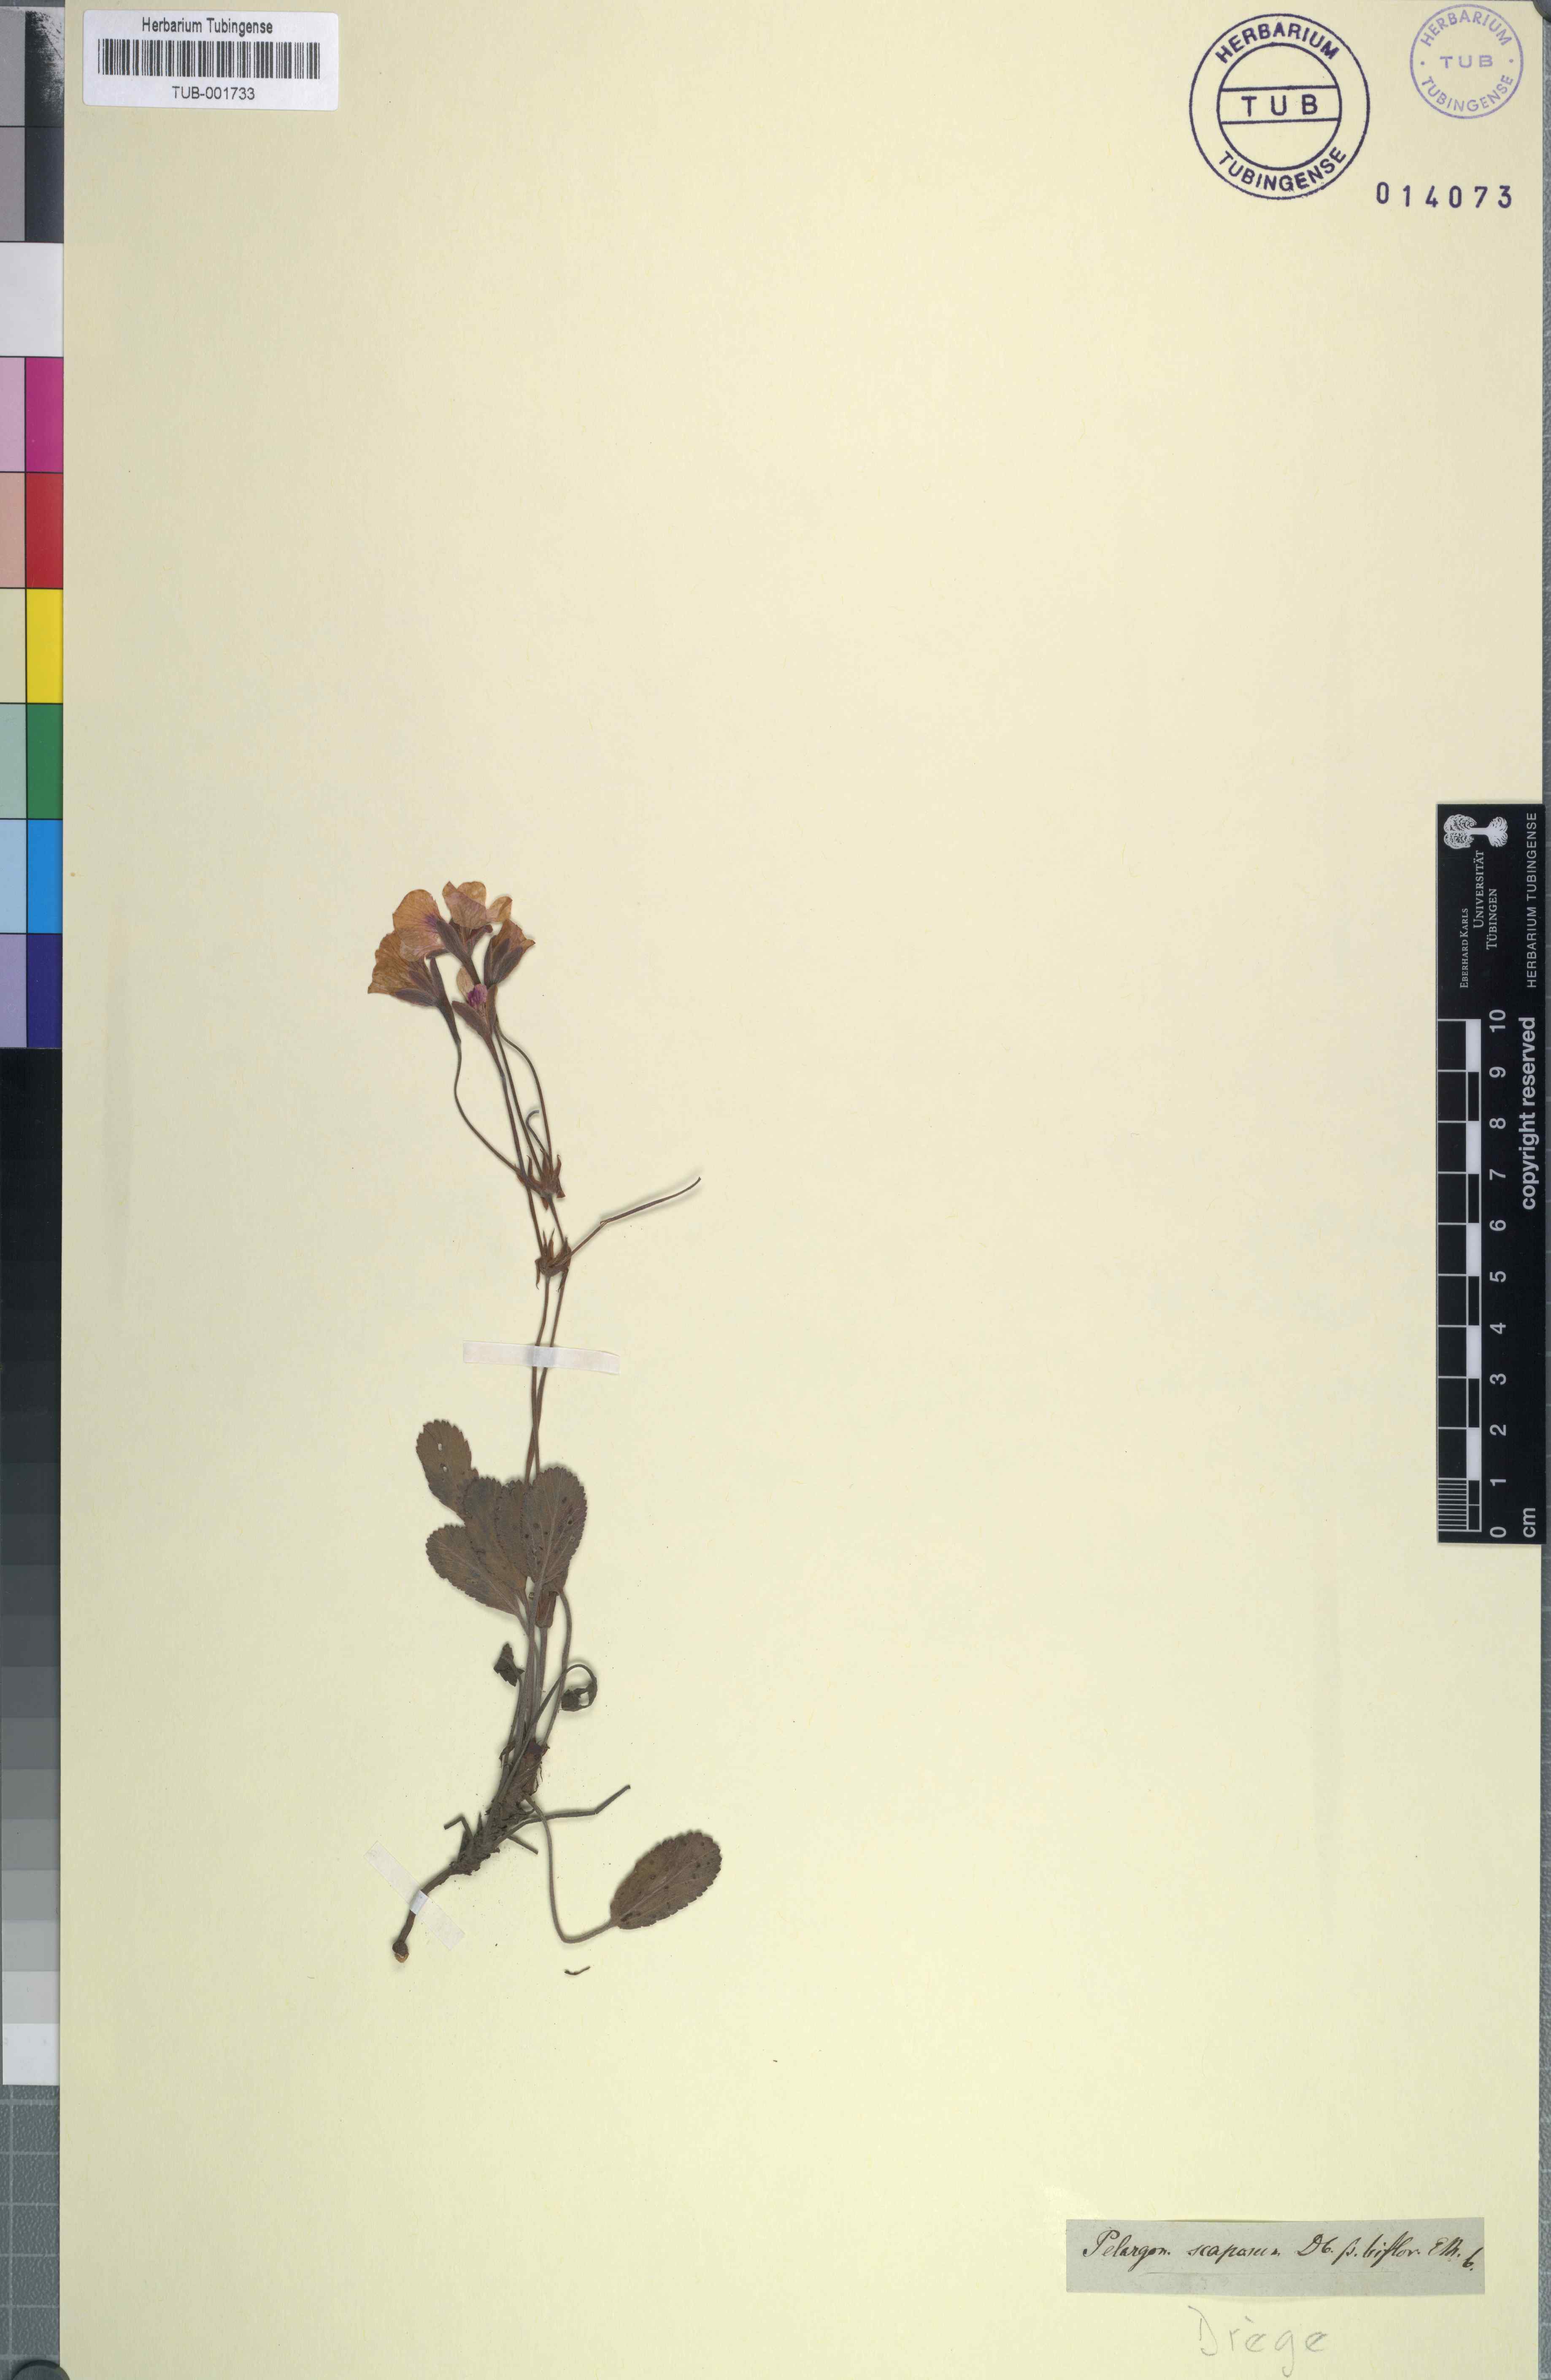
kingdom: Plantae
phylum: Tracheophyta
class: Magnoliopsida
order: Geraniales
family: Geraniaceae
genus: Pelargonium
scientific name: Pelargonium ovale
